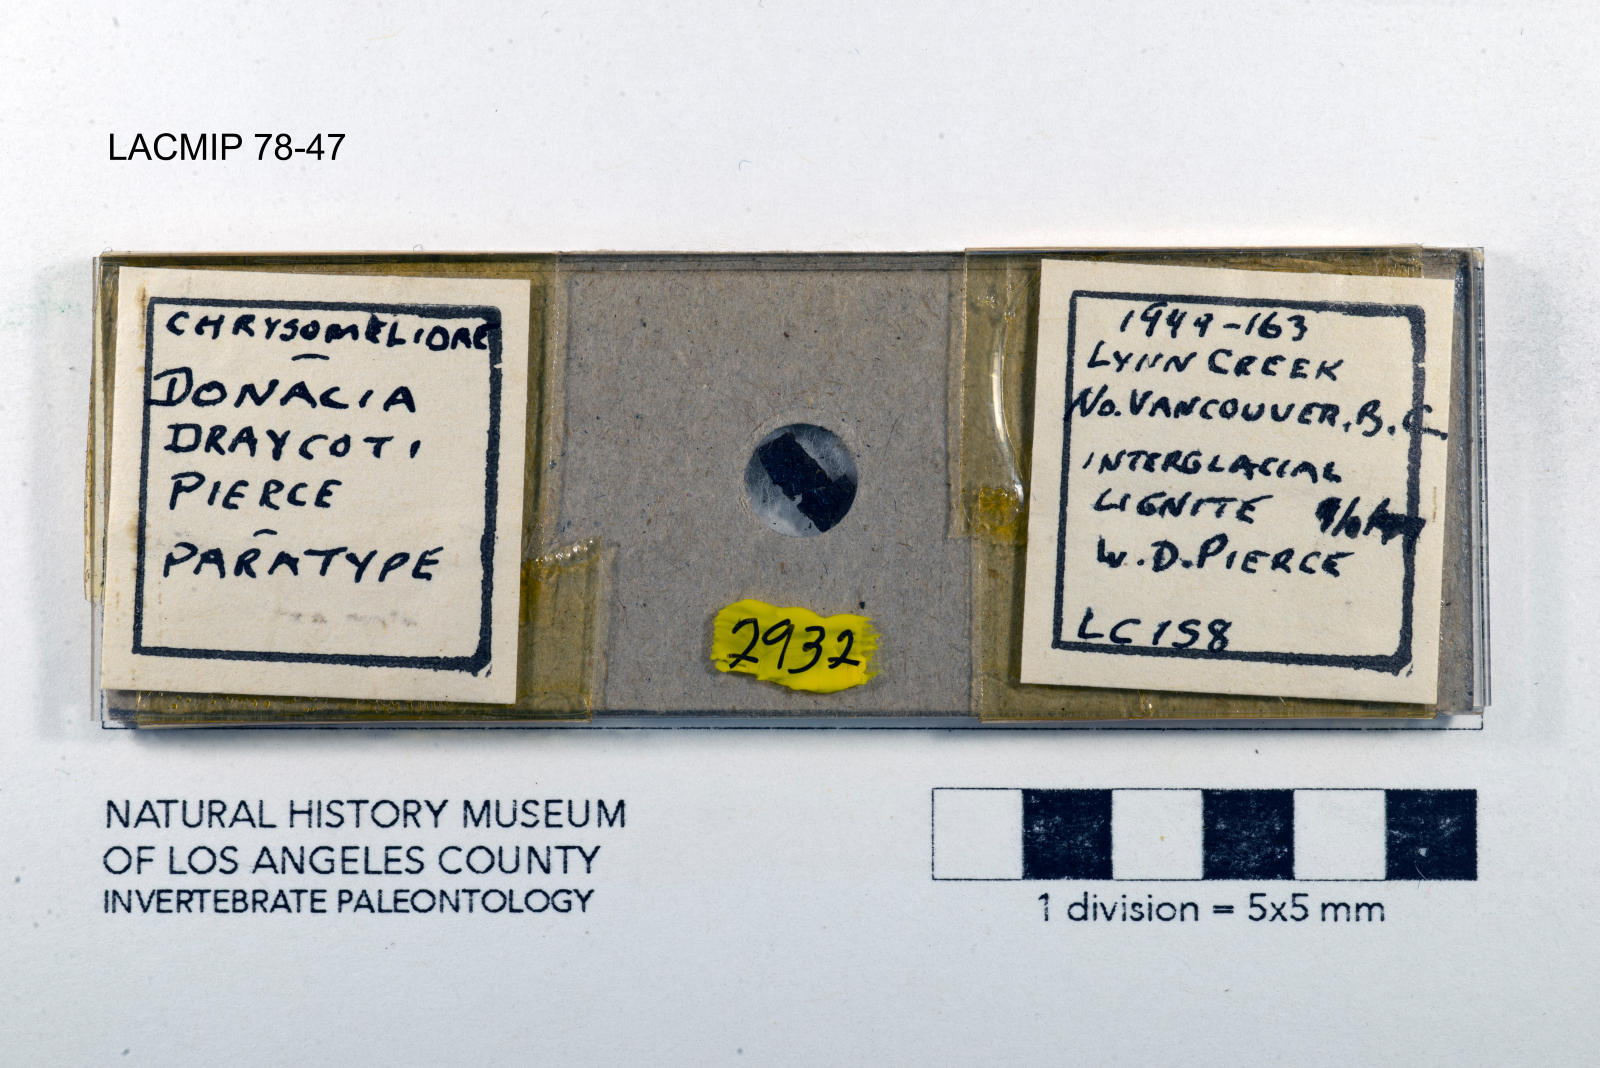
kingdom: Animalia
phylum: Arthropoda
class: Insecta
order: Coleoptera
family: Chrysomelidae
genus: Donacia
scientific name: Donacia draycoti
